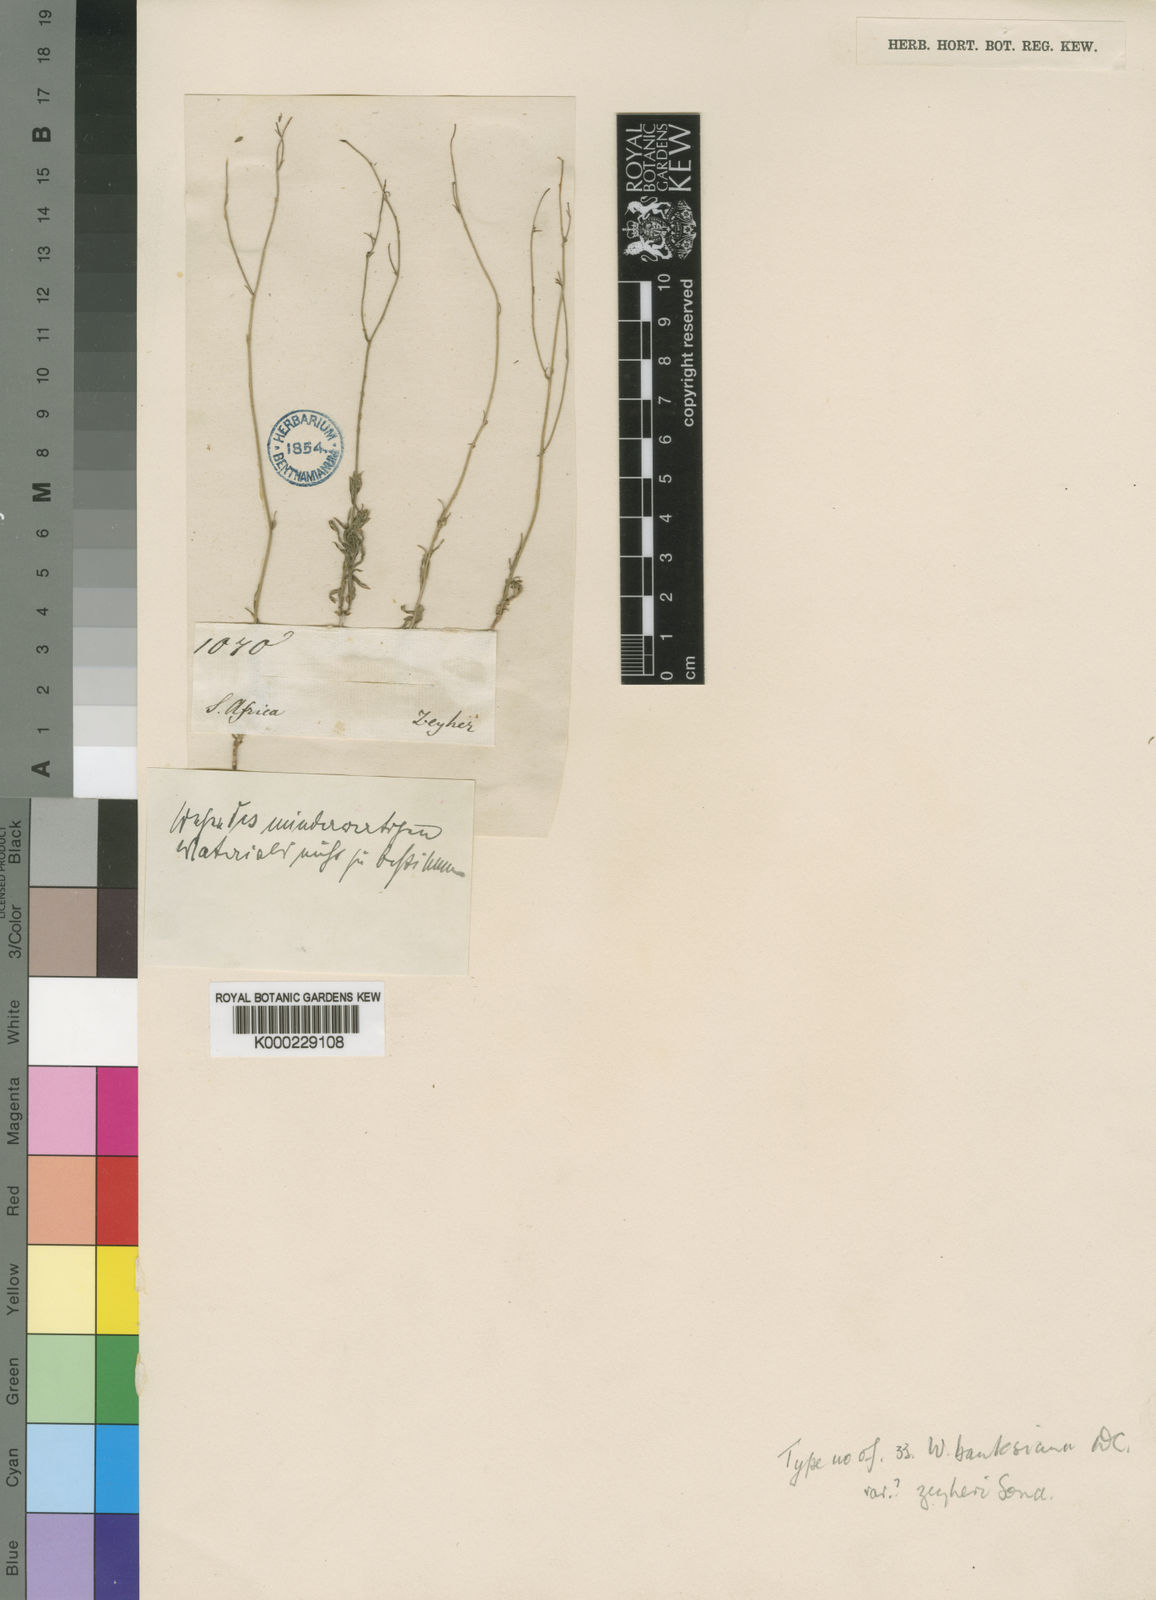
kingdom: Plantae
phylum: Tracheophyta
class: Magnoliopsida
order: Asterales
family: Campanulaceae
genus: Wahlenbergia
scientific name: Wahlenbergia banksiana
